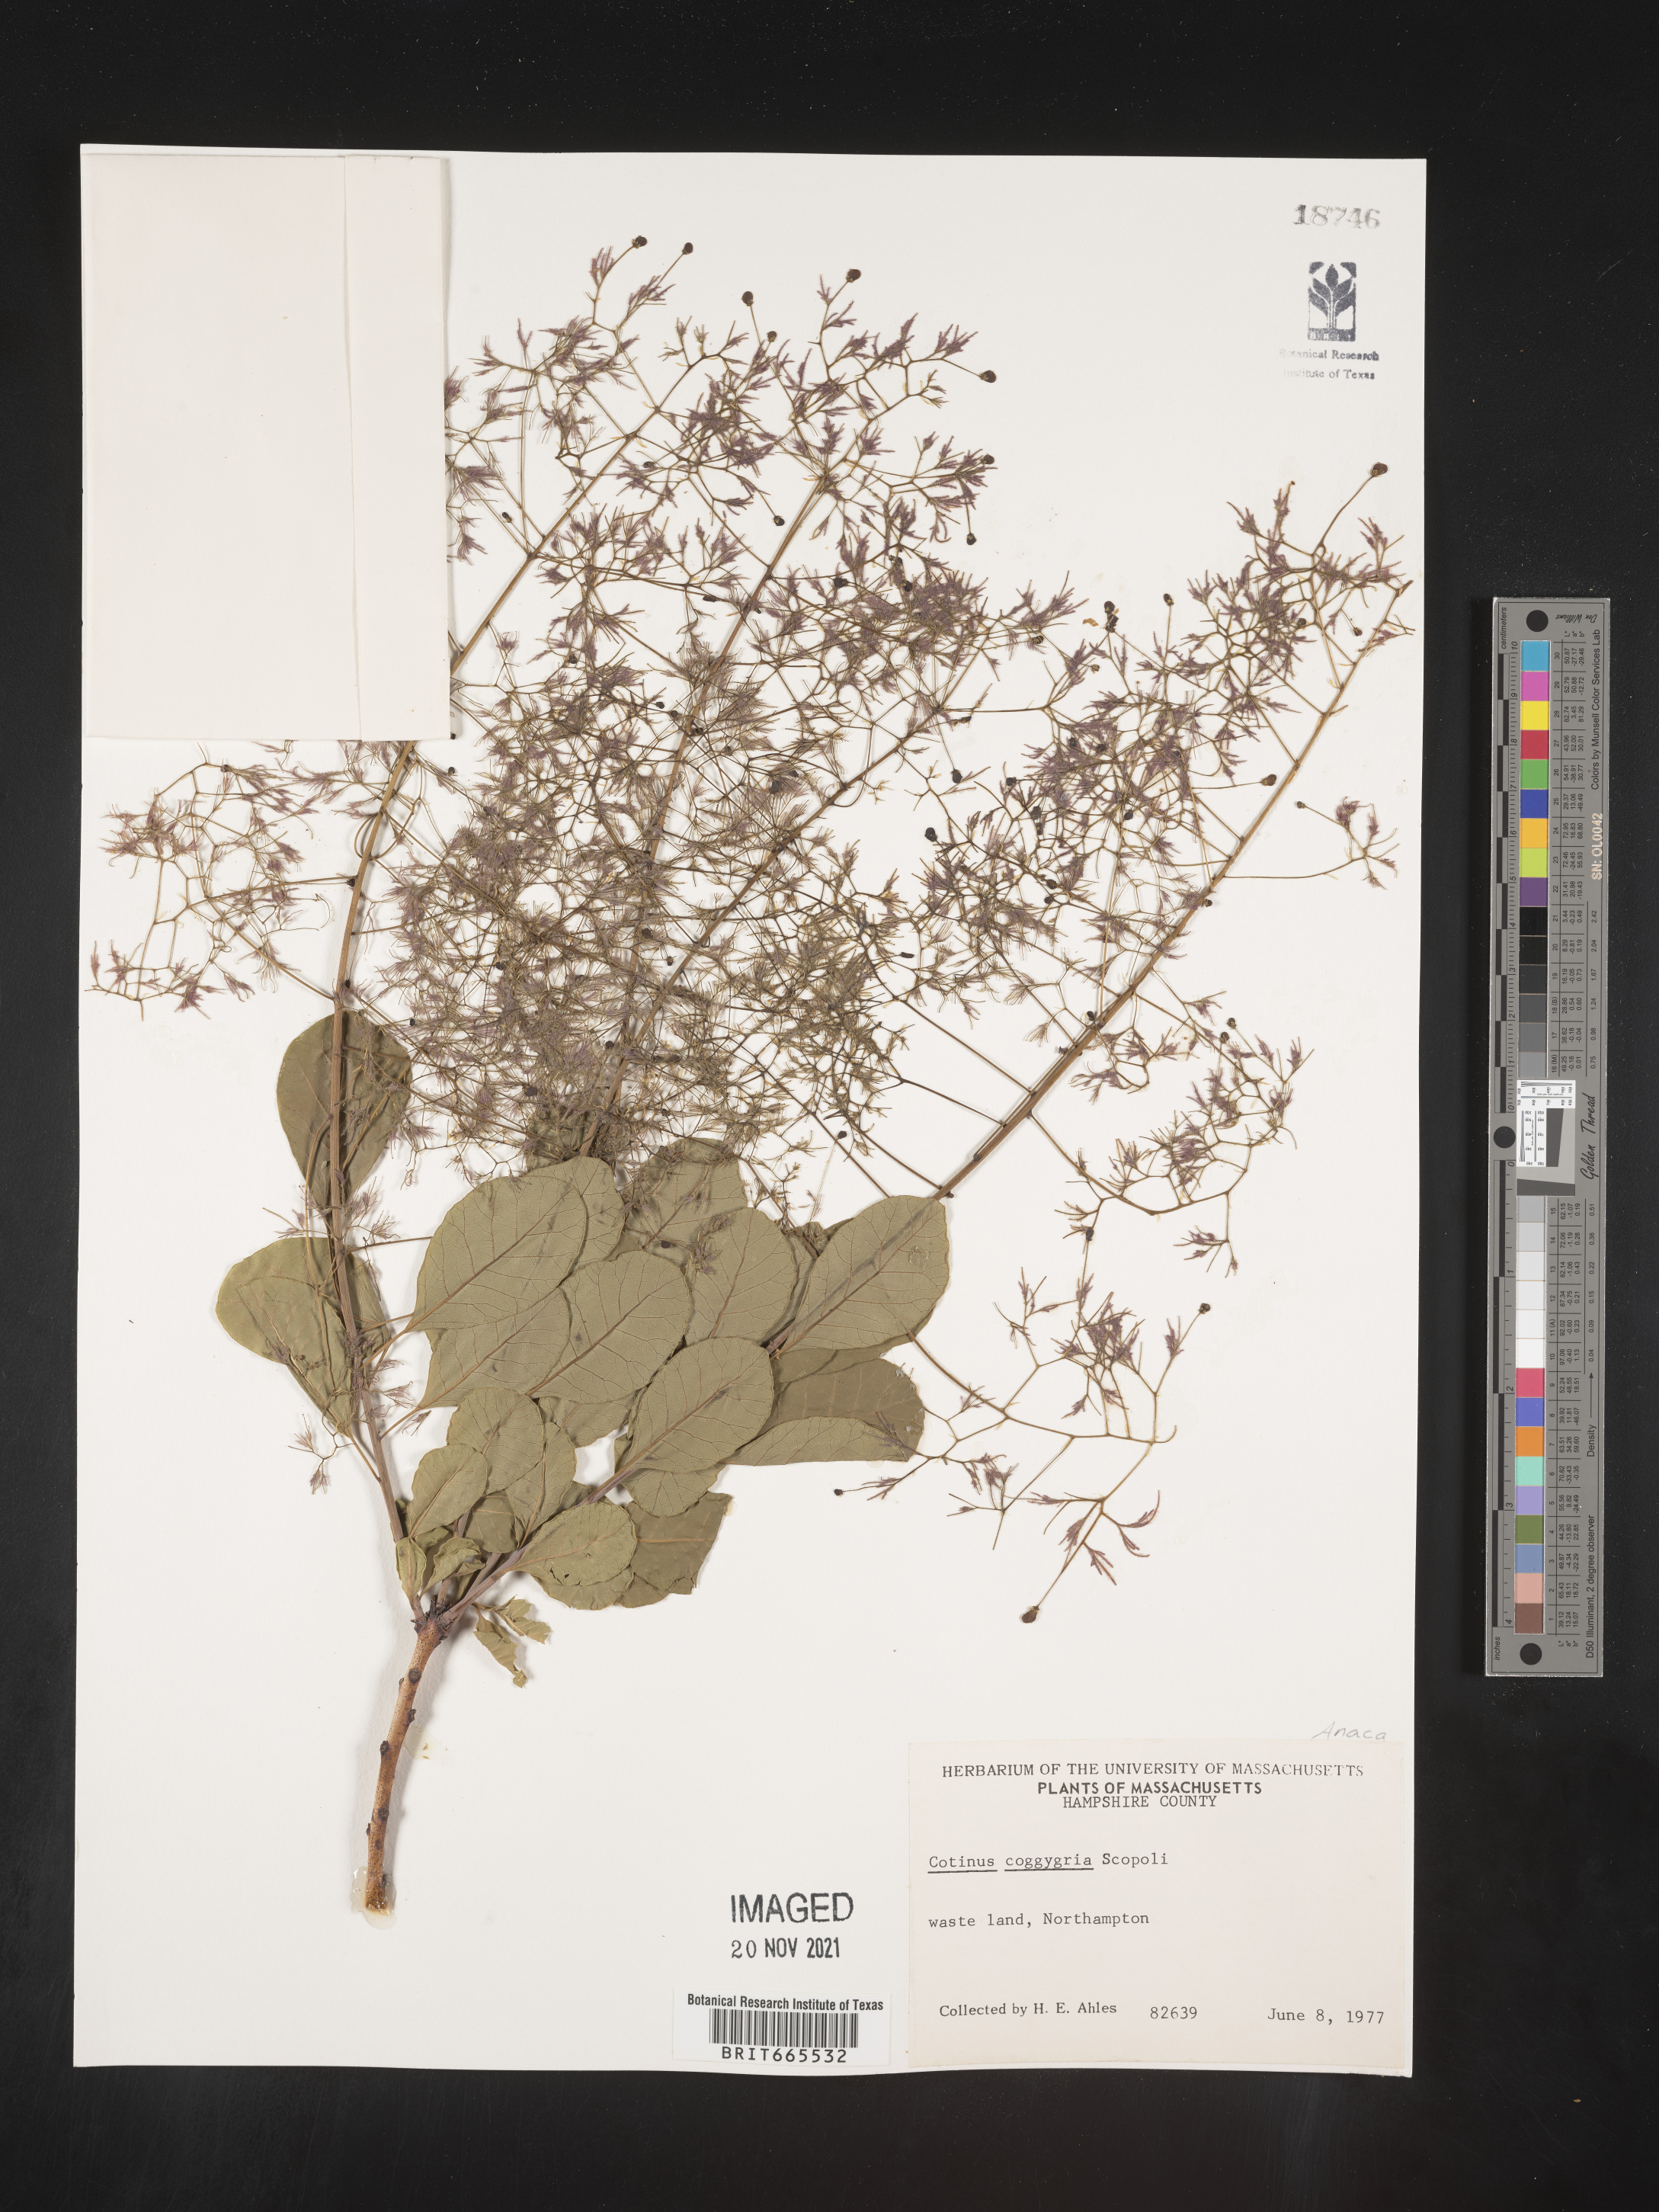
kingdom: Plantae
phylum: Tracheophyta
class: Magnoliopsida
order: Sapindales
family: Anacardiaceae
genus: Cotinus
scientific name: Cotinus coggygria
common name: Smoke-tree
